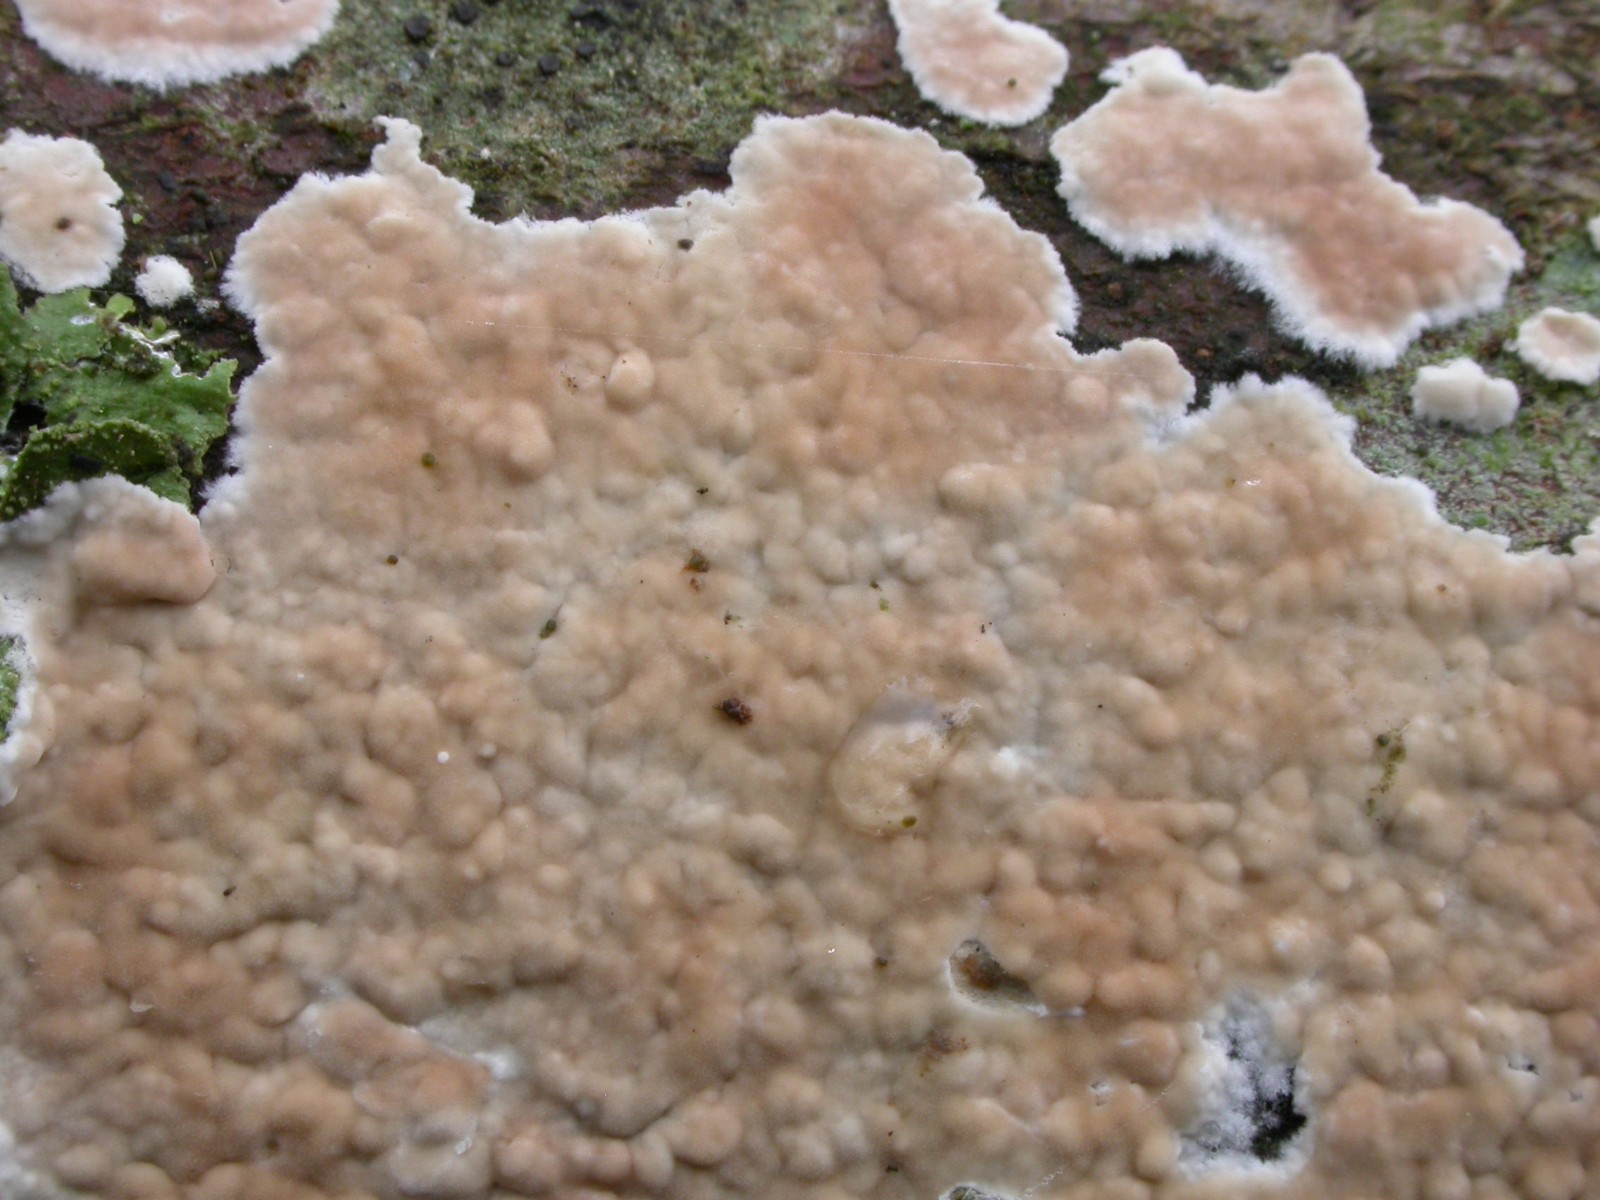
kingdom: Fungi
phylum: Basidiomycota
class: Agaricomycetes
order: Agaricales
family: Physalacriaceae
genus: Cylindrobasidium
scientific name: Cylindrobasidium evolvens
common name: sprækkehinde
